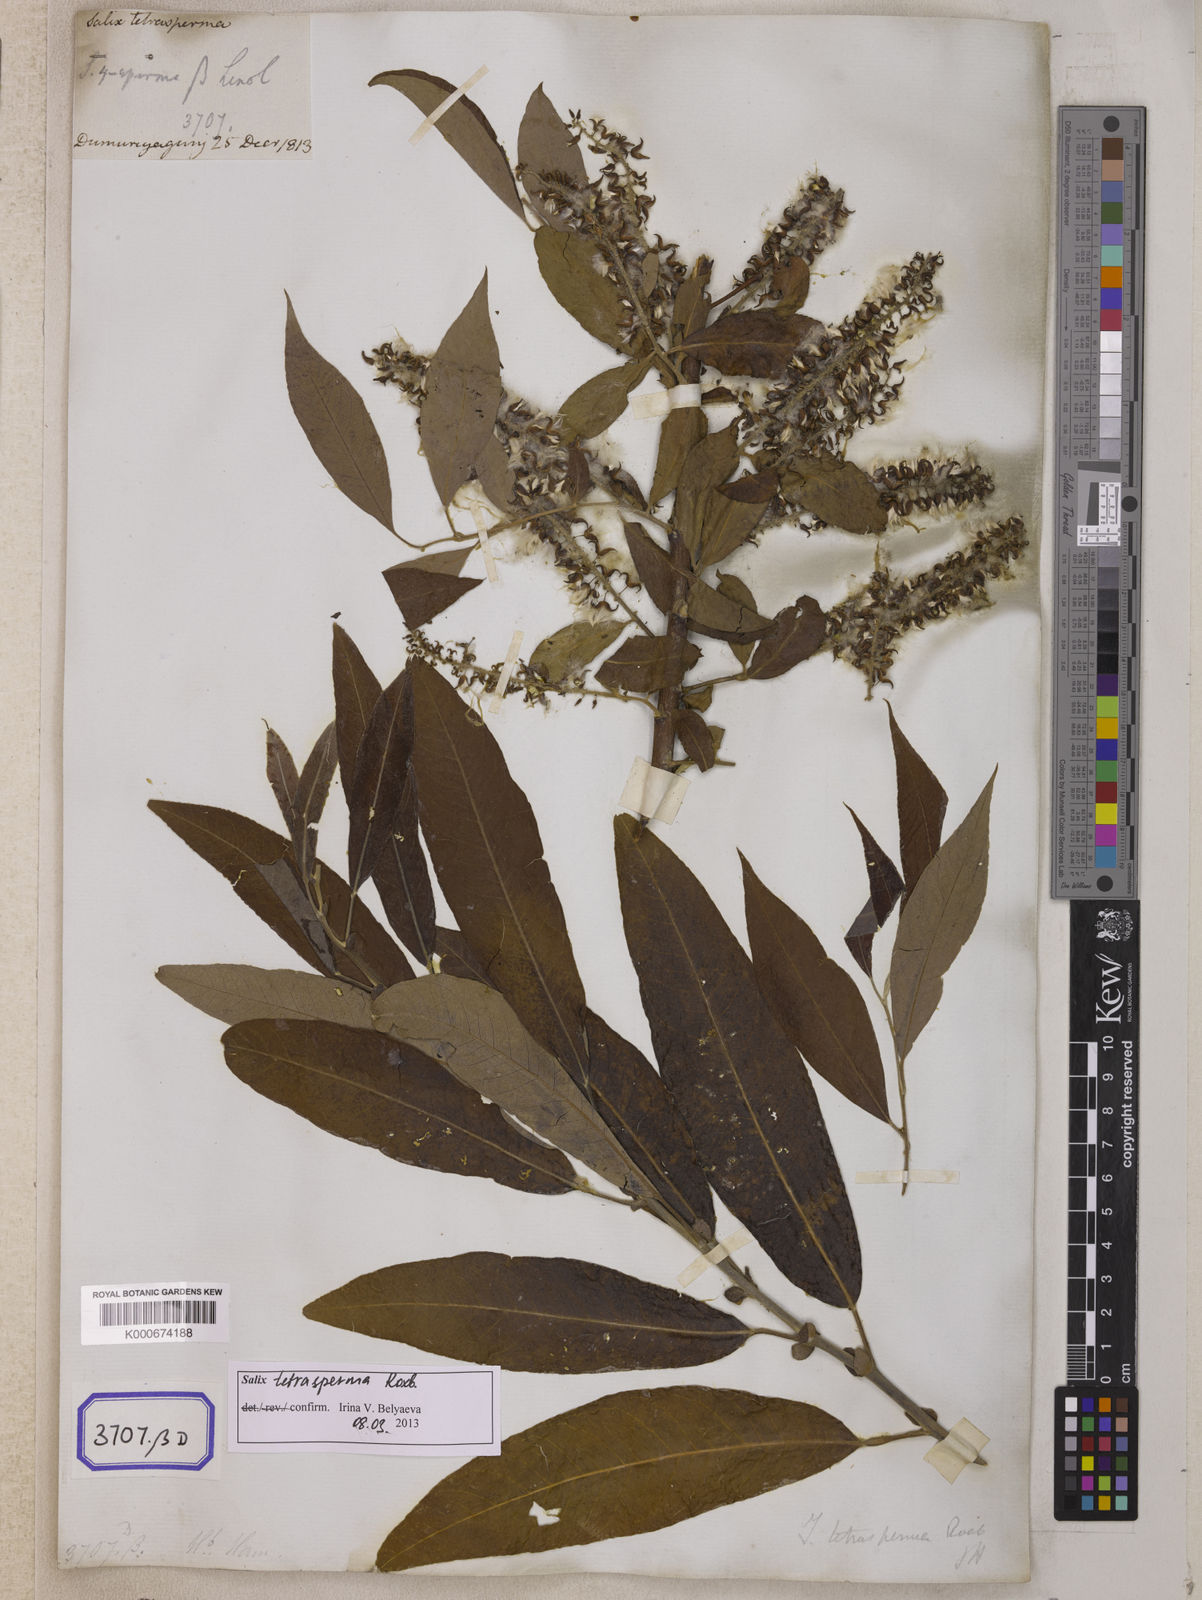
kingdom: Plantae
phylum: Tracheophyta
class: Magnoliopsida
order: Malpighiales
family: Salicaceae
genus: Salix
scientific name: Salix tetrasperma
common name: Indian willow
